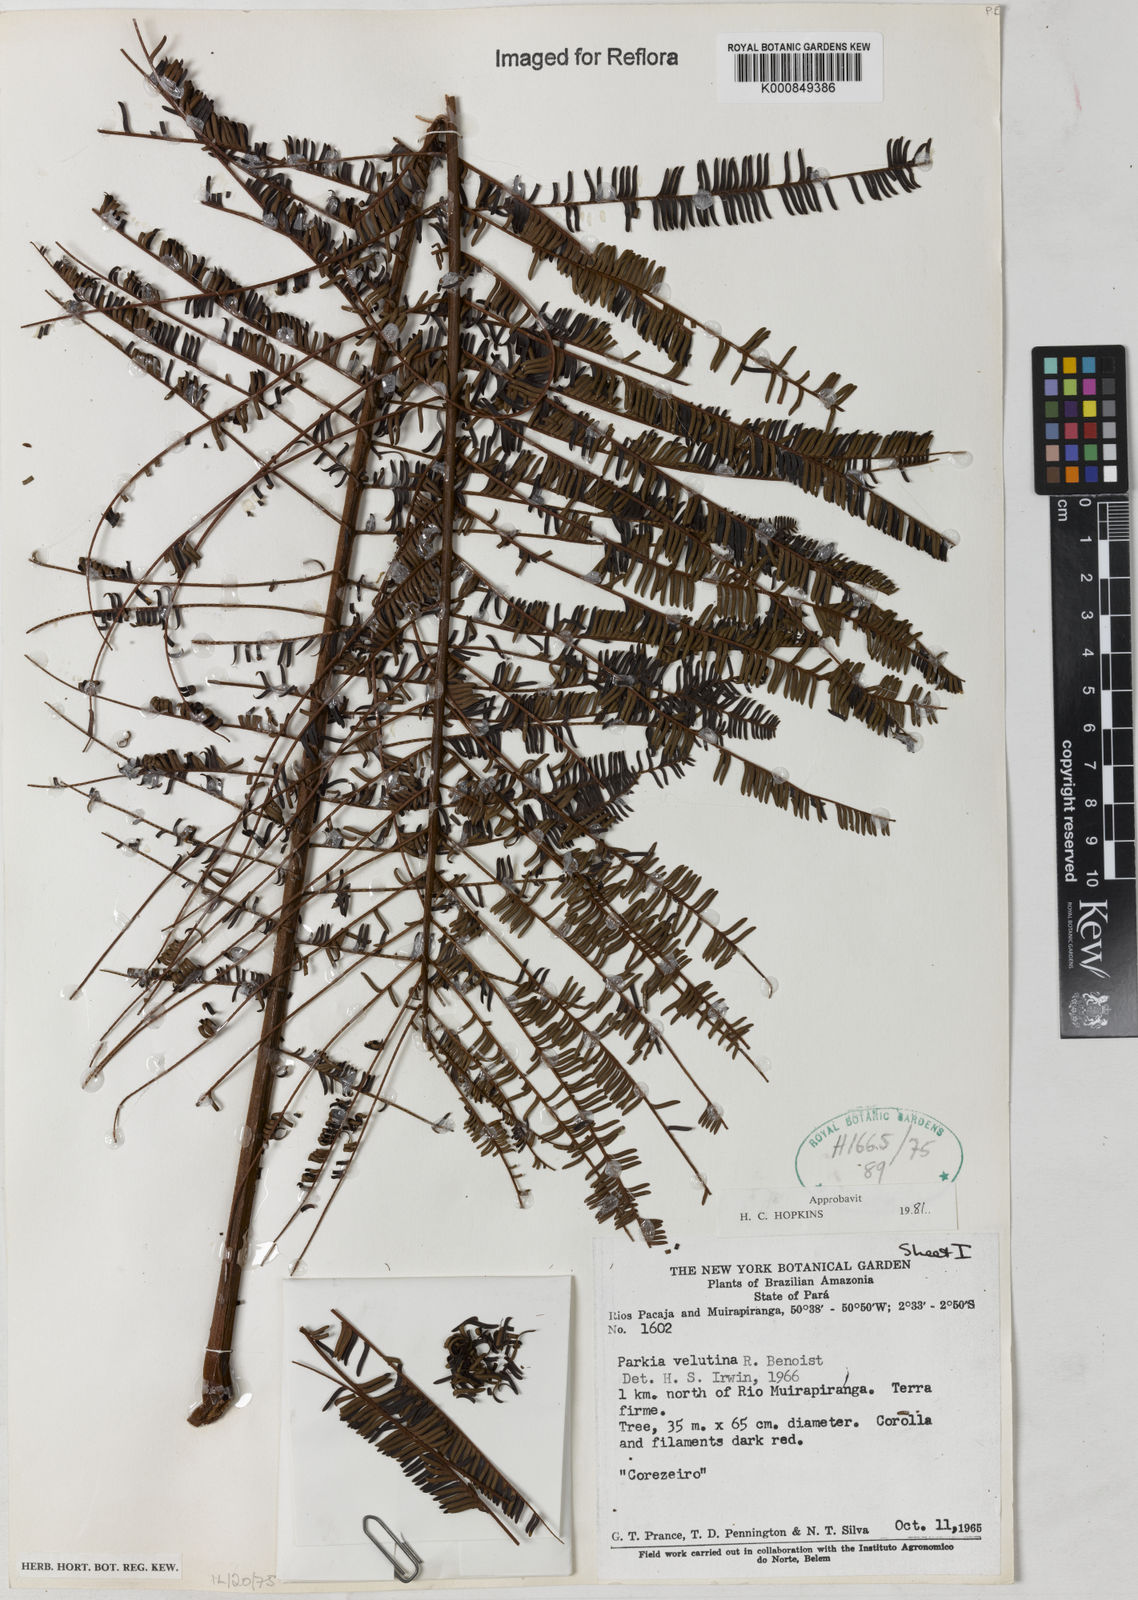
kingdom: Plantae
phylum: Tracheophyta
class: Magnoliopsida
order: Fabales
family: Fabaceae
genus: Parkia
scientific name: Parkia velutina
